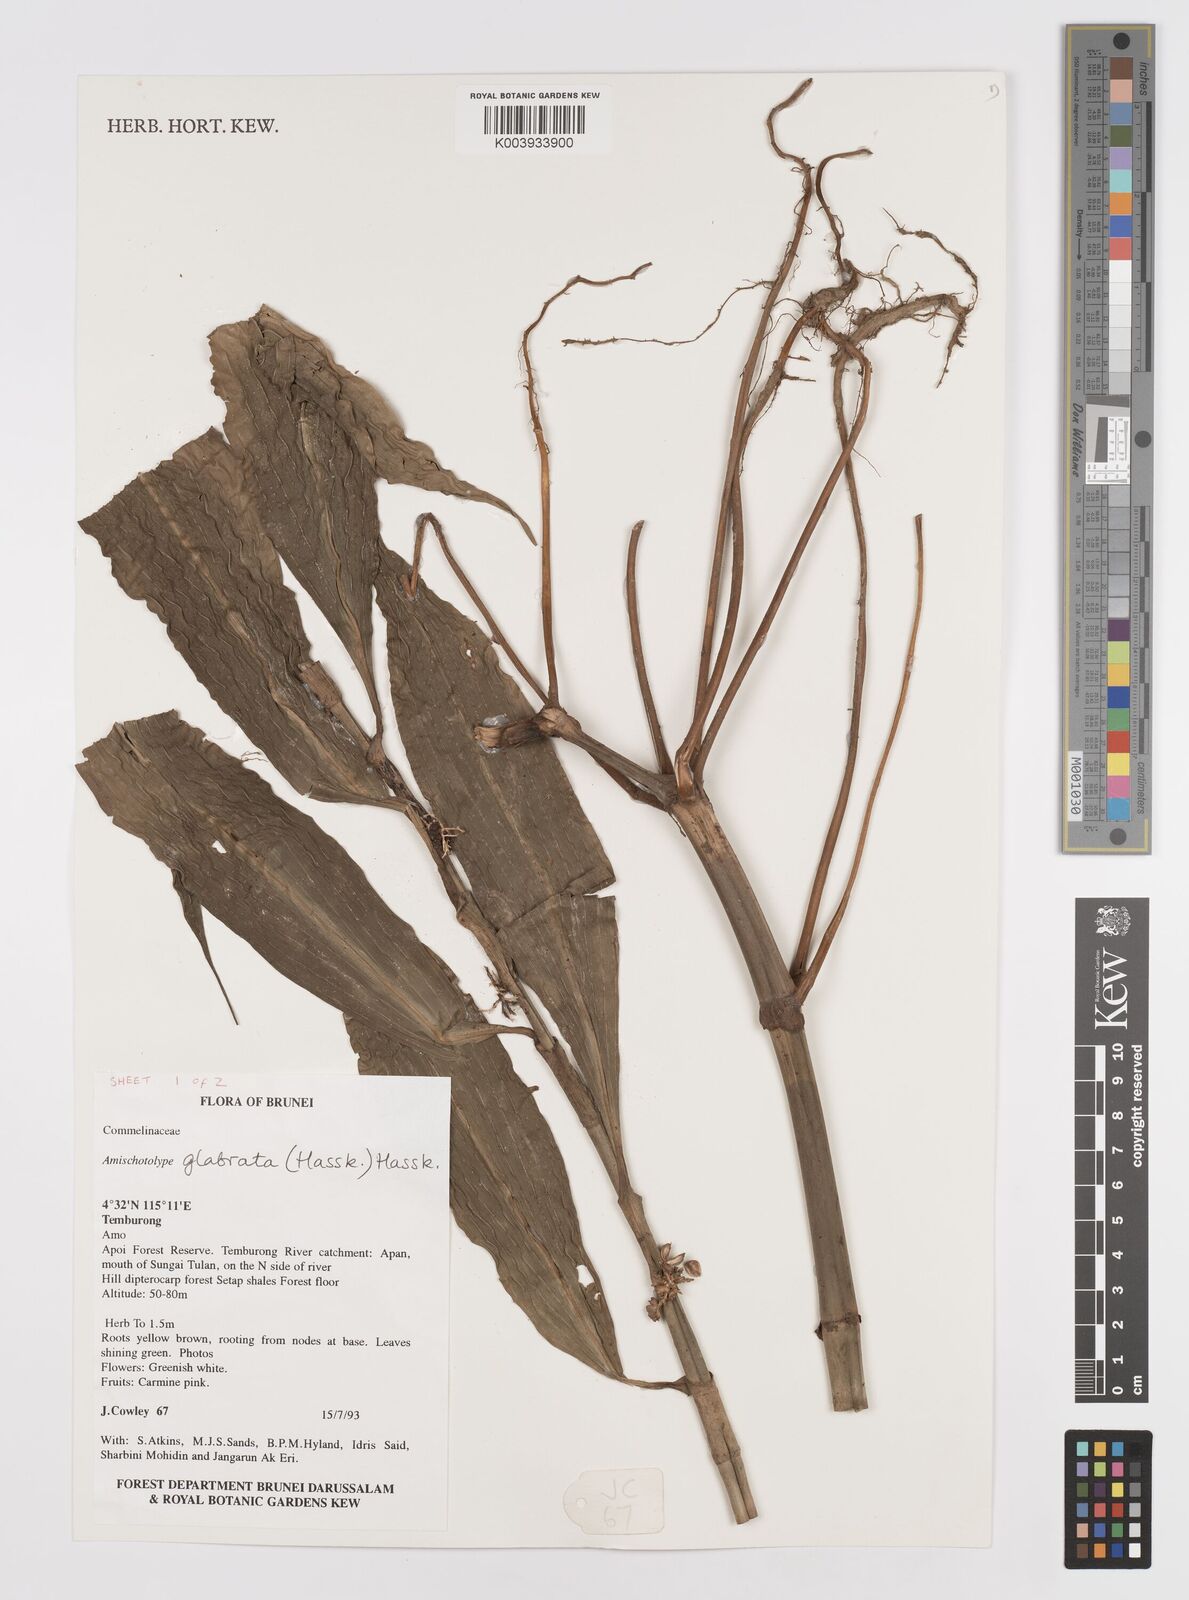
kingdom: Plantae
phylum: Tracheophyta
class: Liliopsida
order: Commelinales
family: Commelinaceae
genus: Amischotolype
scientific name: Amischotolype glabrata
